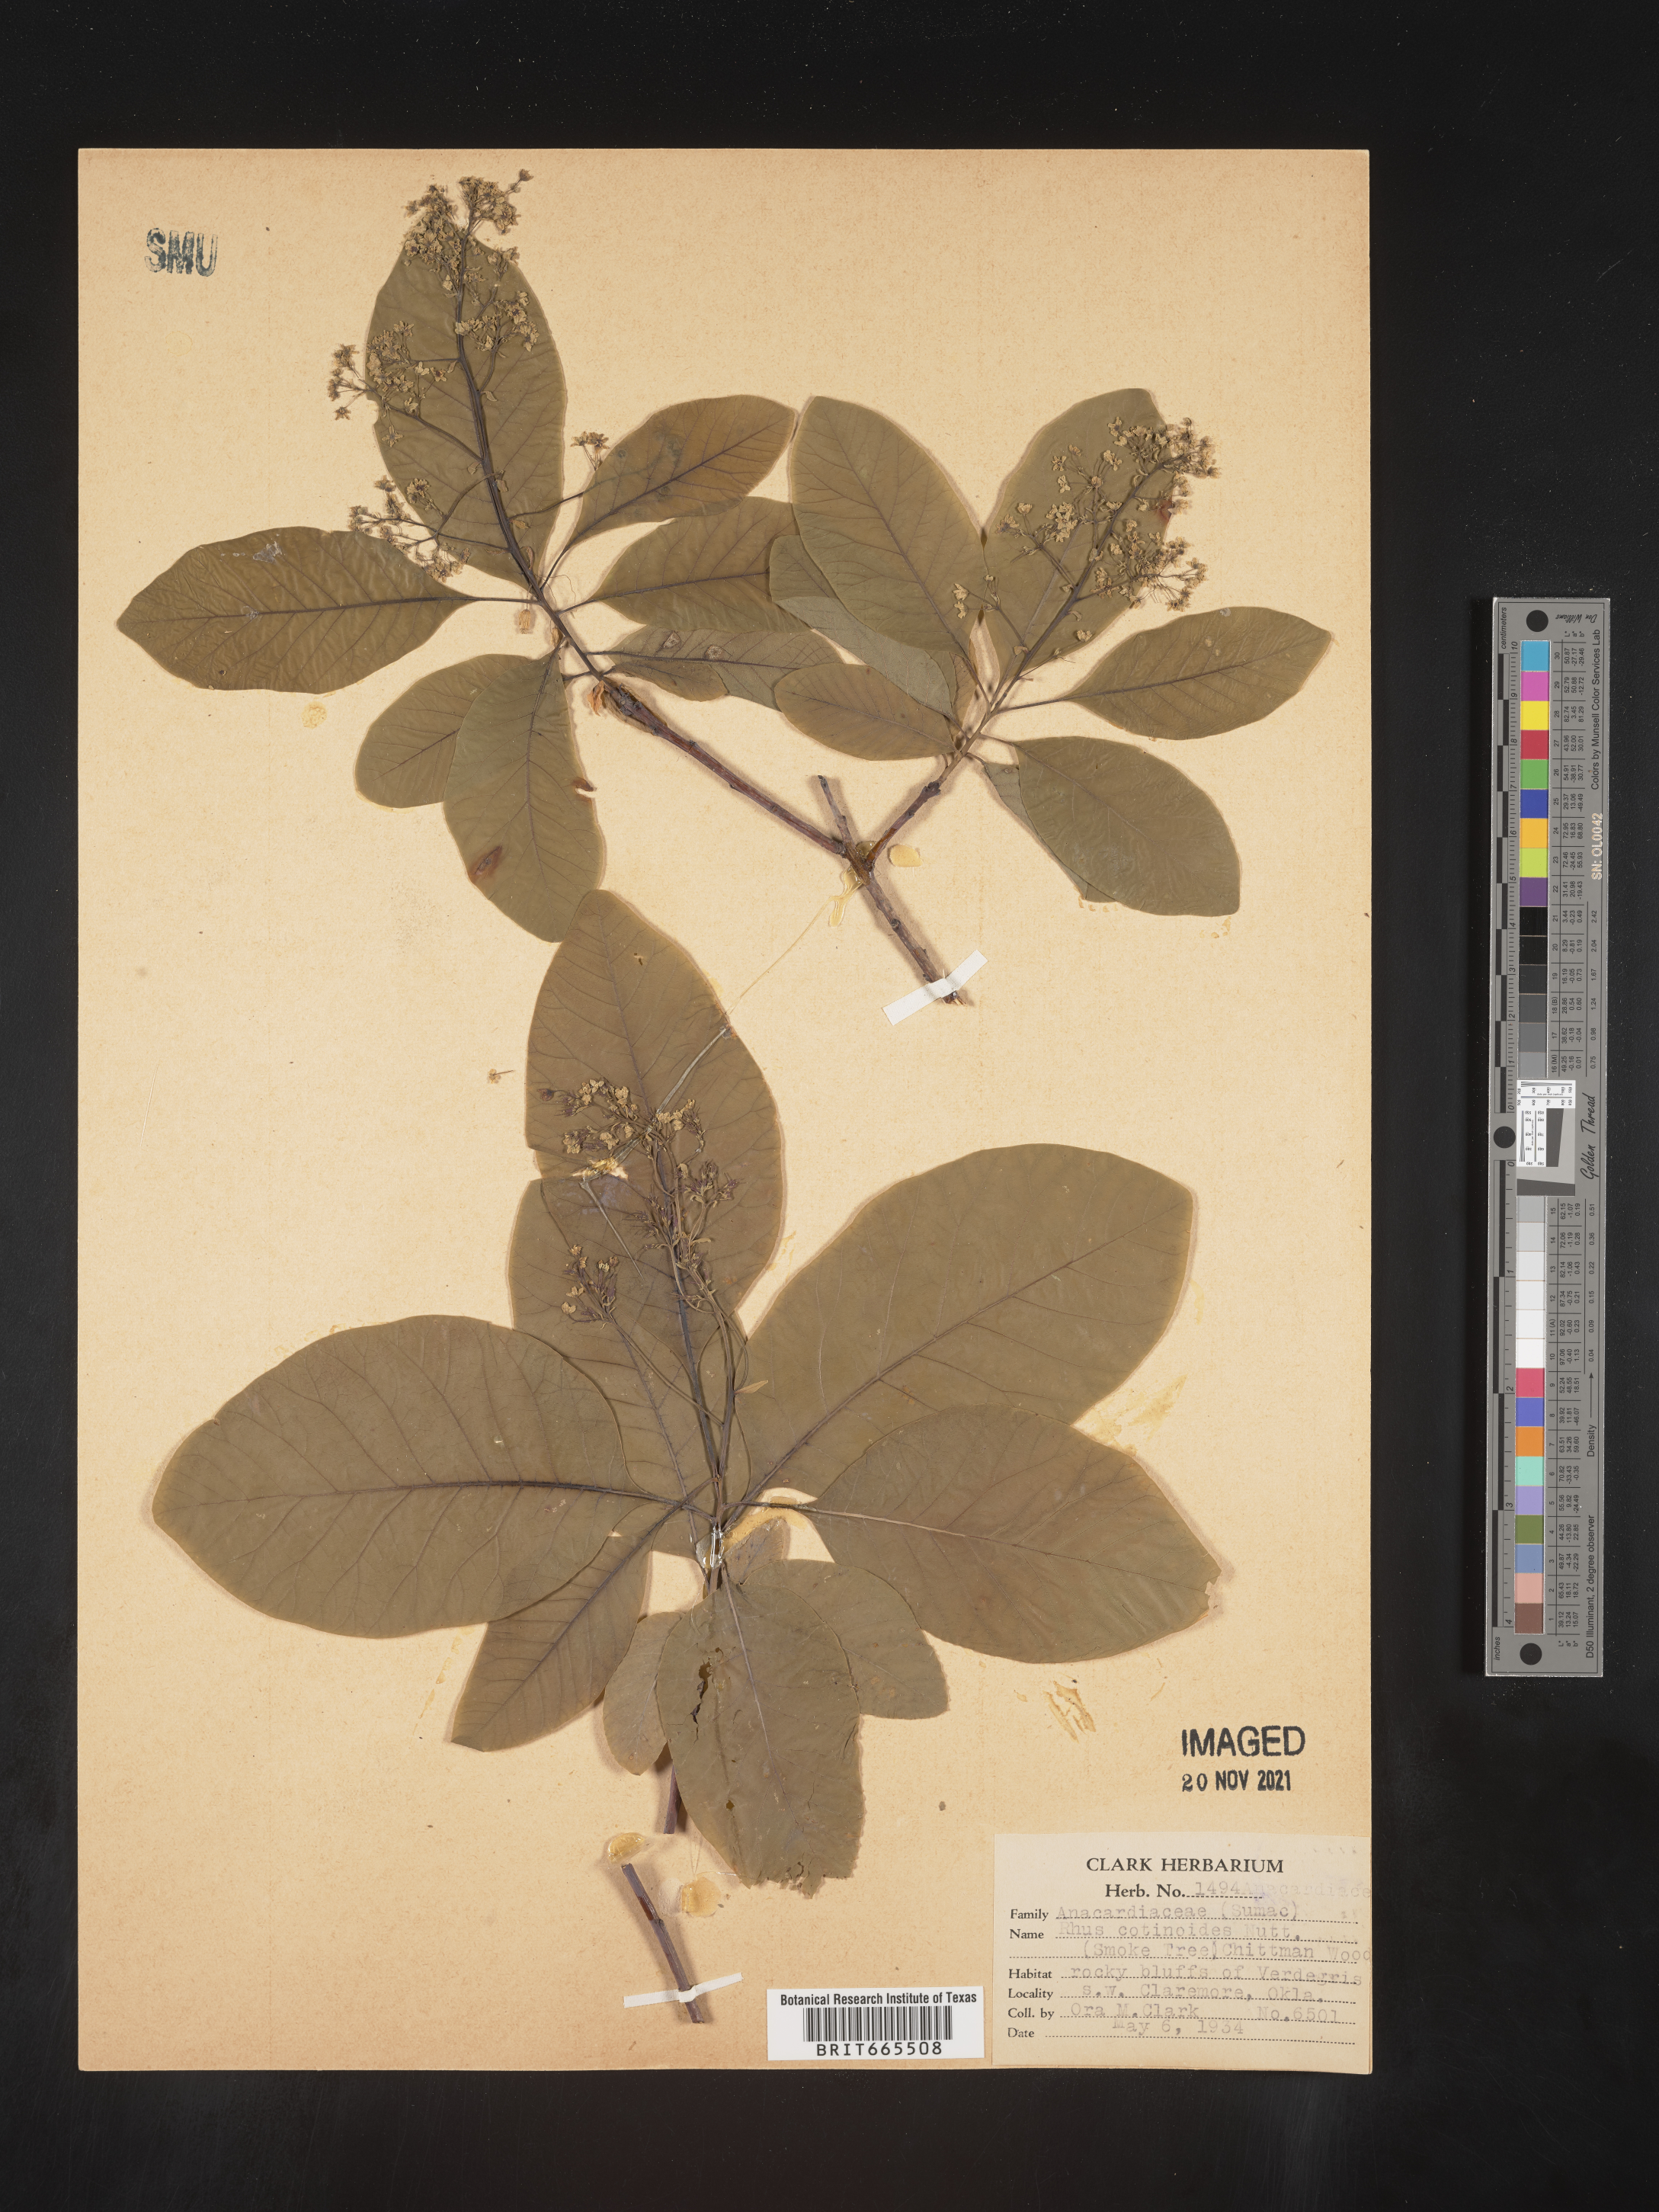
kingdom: Plantae
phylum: Tracheophyta
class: Magnoliopsida
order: Sapindales
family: Anacardiaceae
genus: Cotinus
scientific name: Cotinus obovatus
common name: Chittamwood
